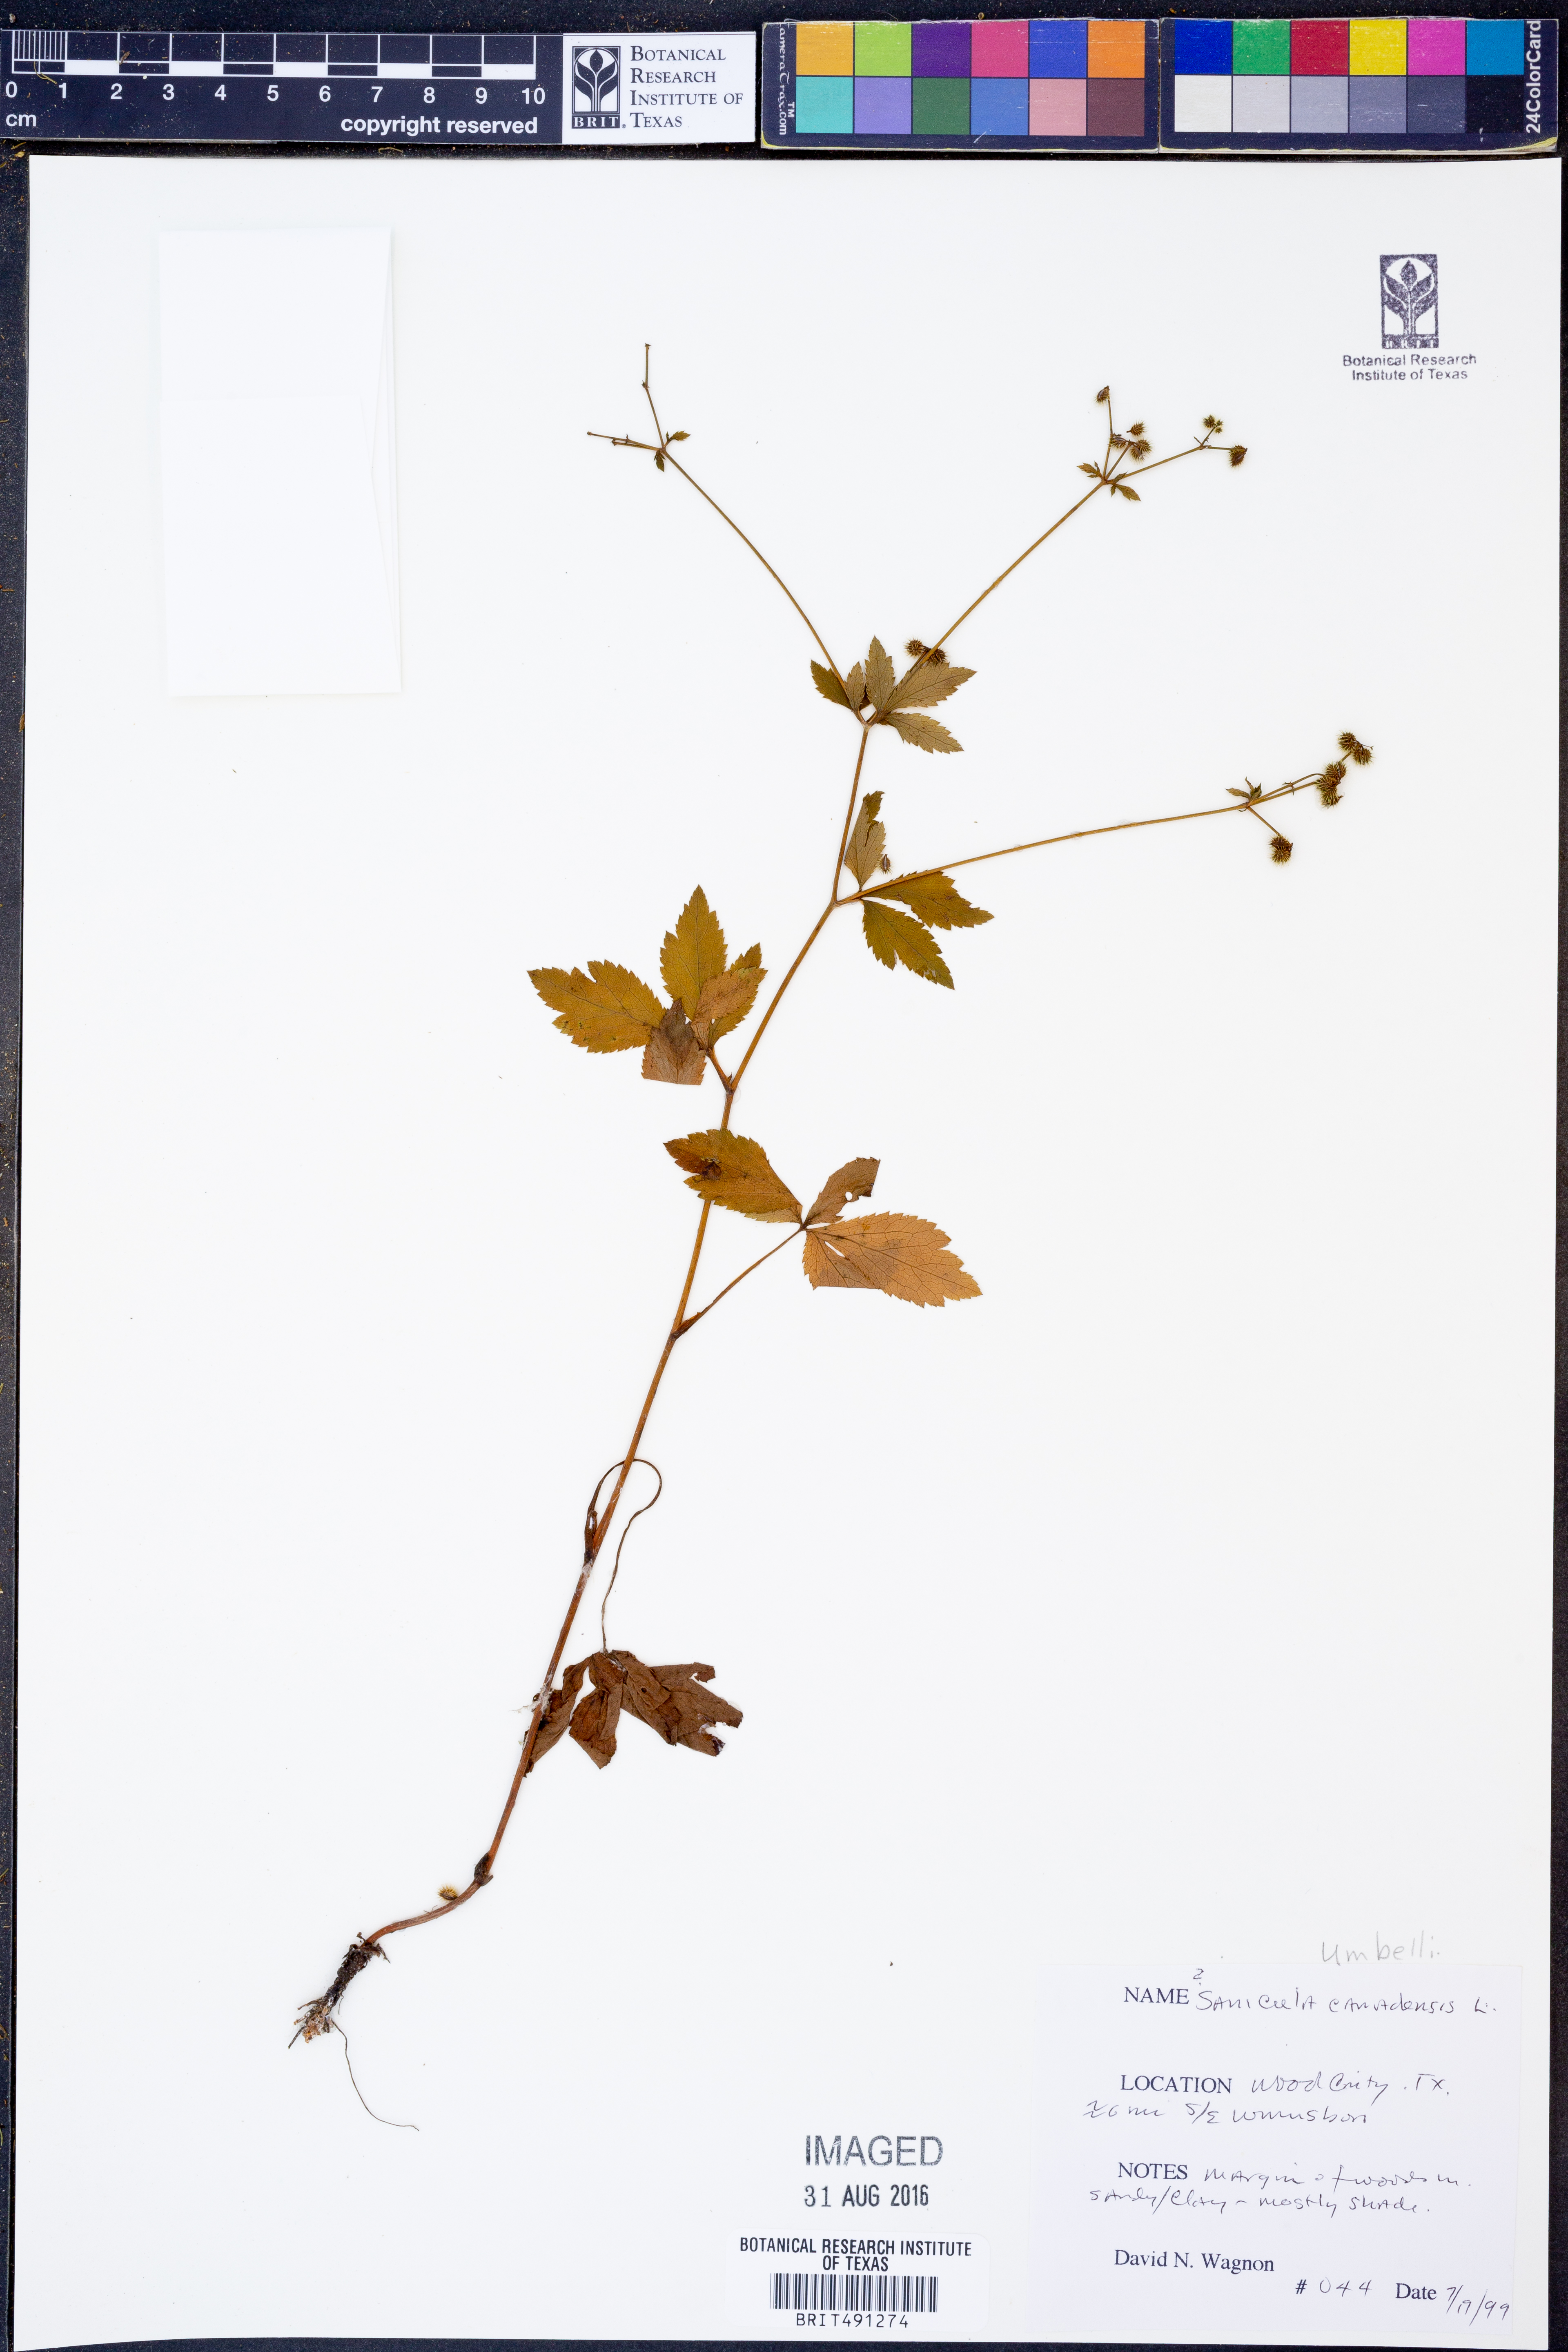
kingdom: Plantae
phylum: Tracheophyta
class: Magnoliopsida
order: Apiales
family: Apiaceae
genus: Sanicula
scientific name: Sanicula canadensis
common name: Canada sanicle
